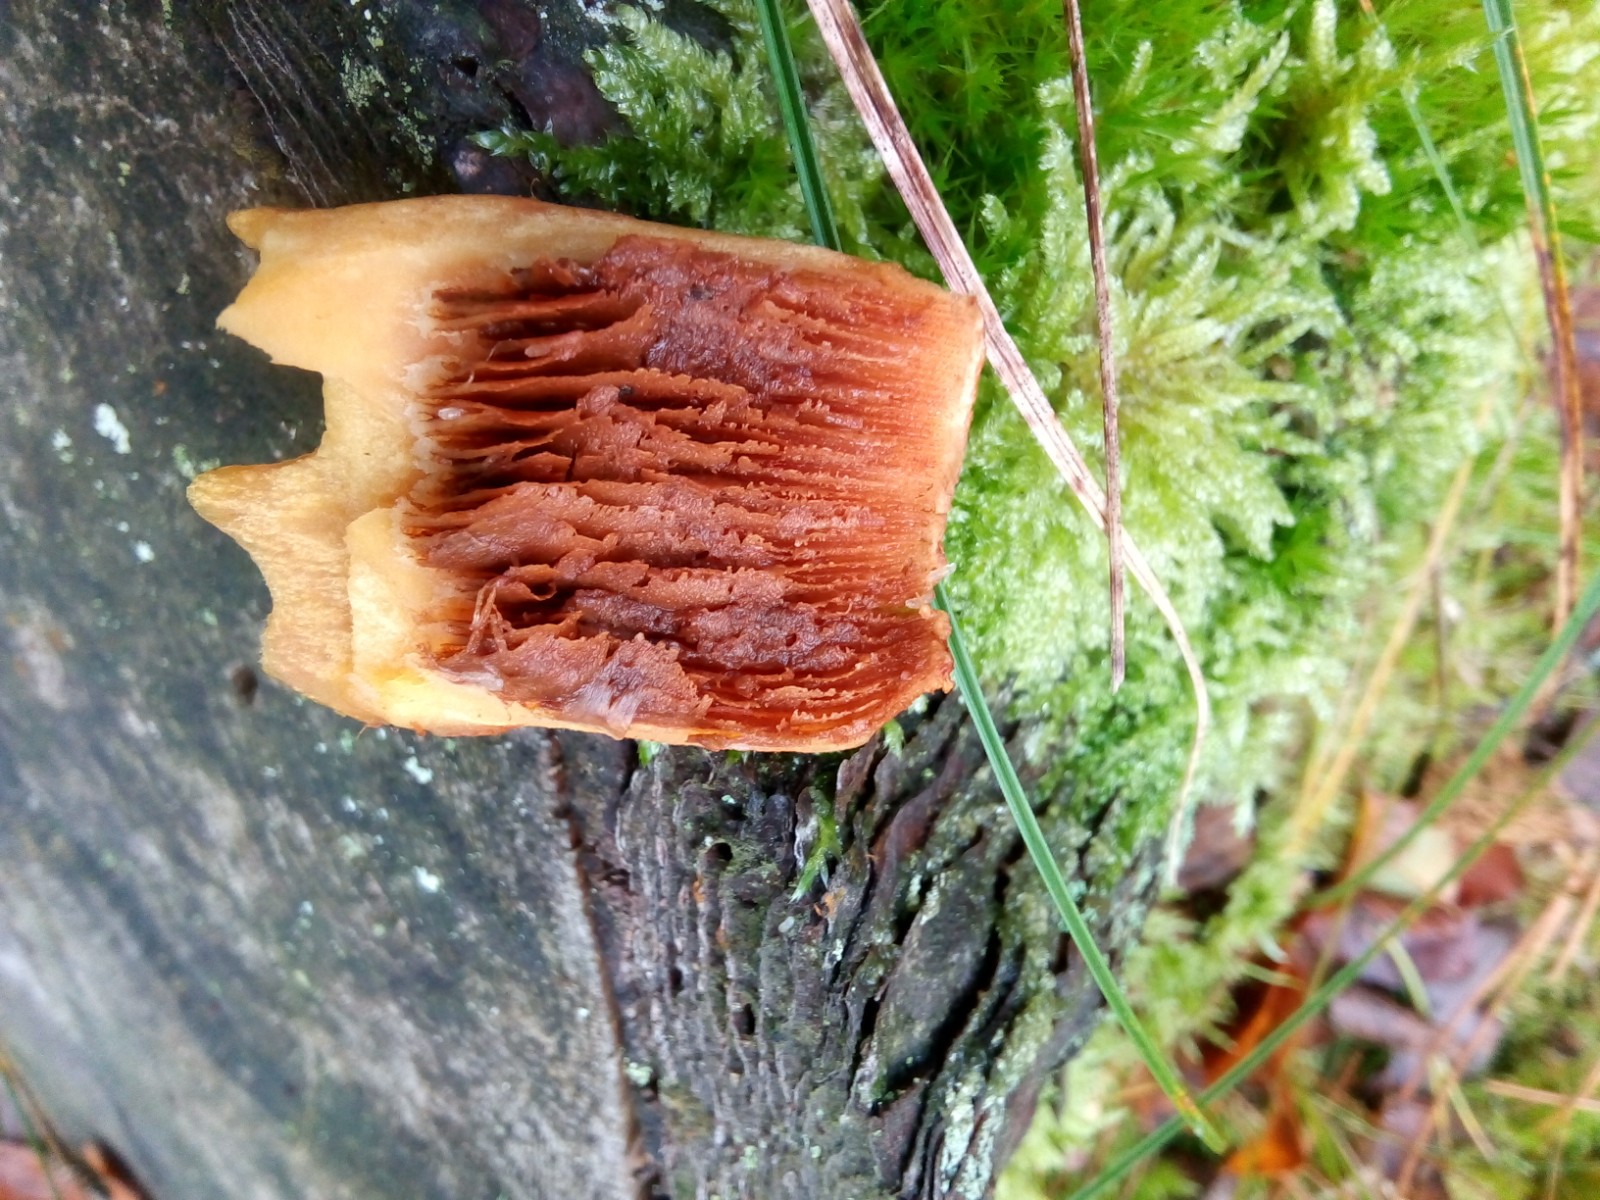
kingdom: Fungi
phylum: Basidiomycota
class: Agaricomycetes
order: Agaricales
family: Hymenogastraceae
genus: Gymnopilus
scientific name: Gymnopilus spectabilis
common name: fibret flammehat
